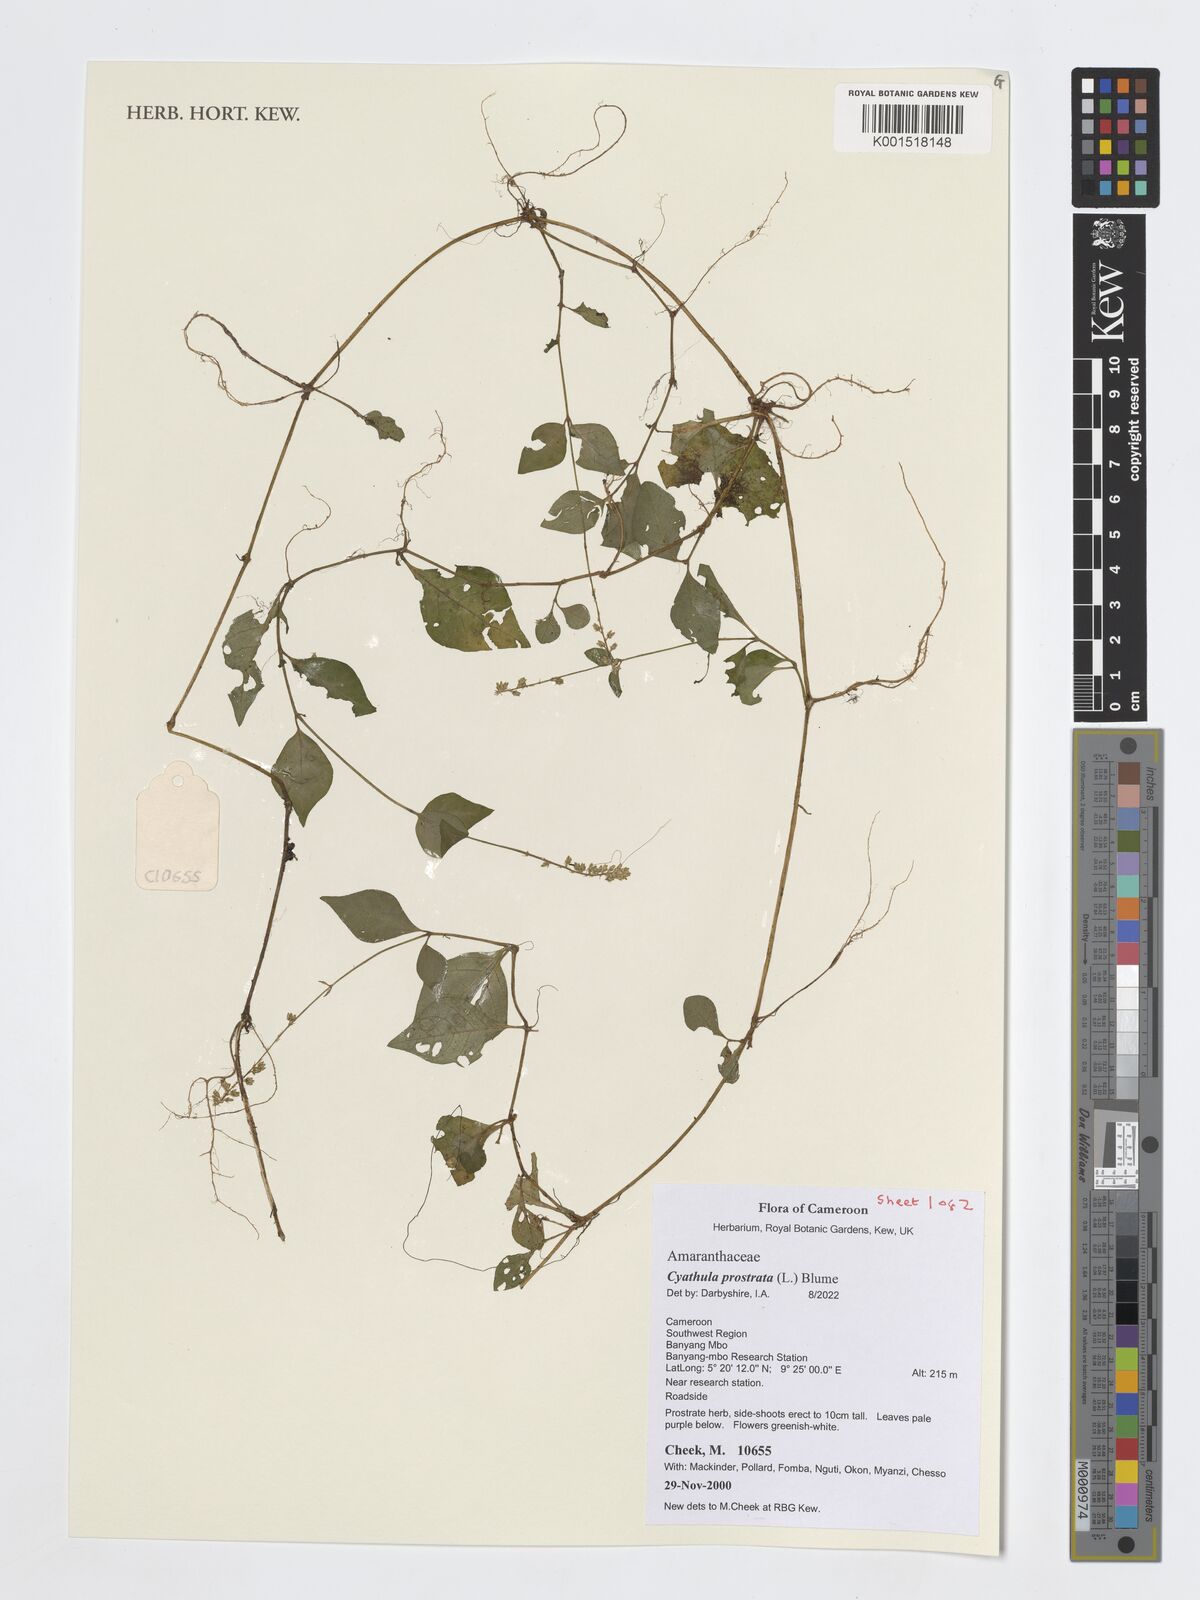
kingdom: Plantae
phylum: Tracheophyta
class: Magnoliopsida
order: Caryophyllales
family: Amaranthaceae
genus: Cyathula
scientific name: Cyathula prostrata
